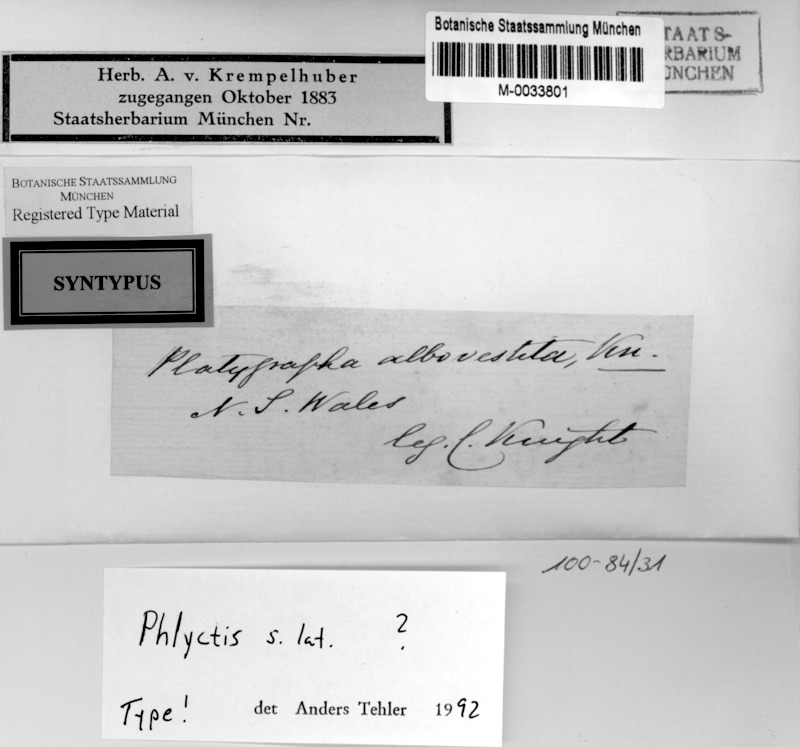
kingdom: Fungi
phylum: Ascomycota
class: Lecanoromycetes
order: Ostropales
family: Graphidaceae
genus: Diorygma
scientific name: Diorygma pruinosum
